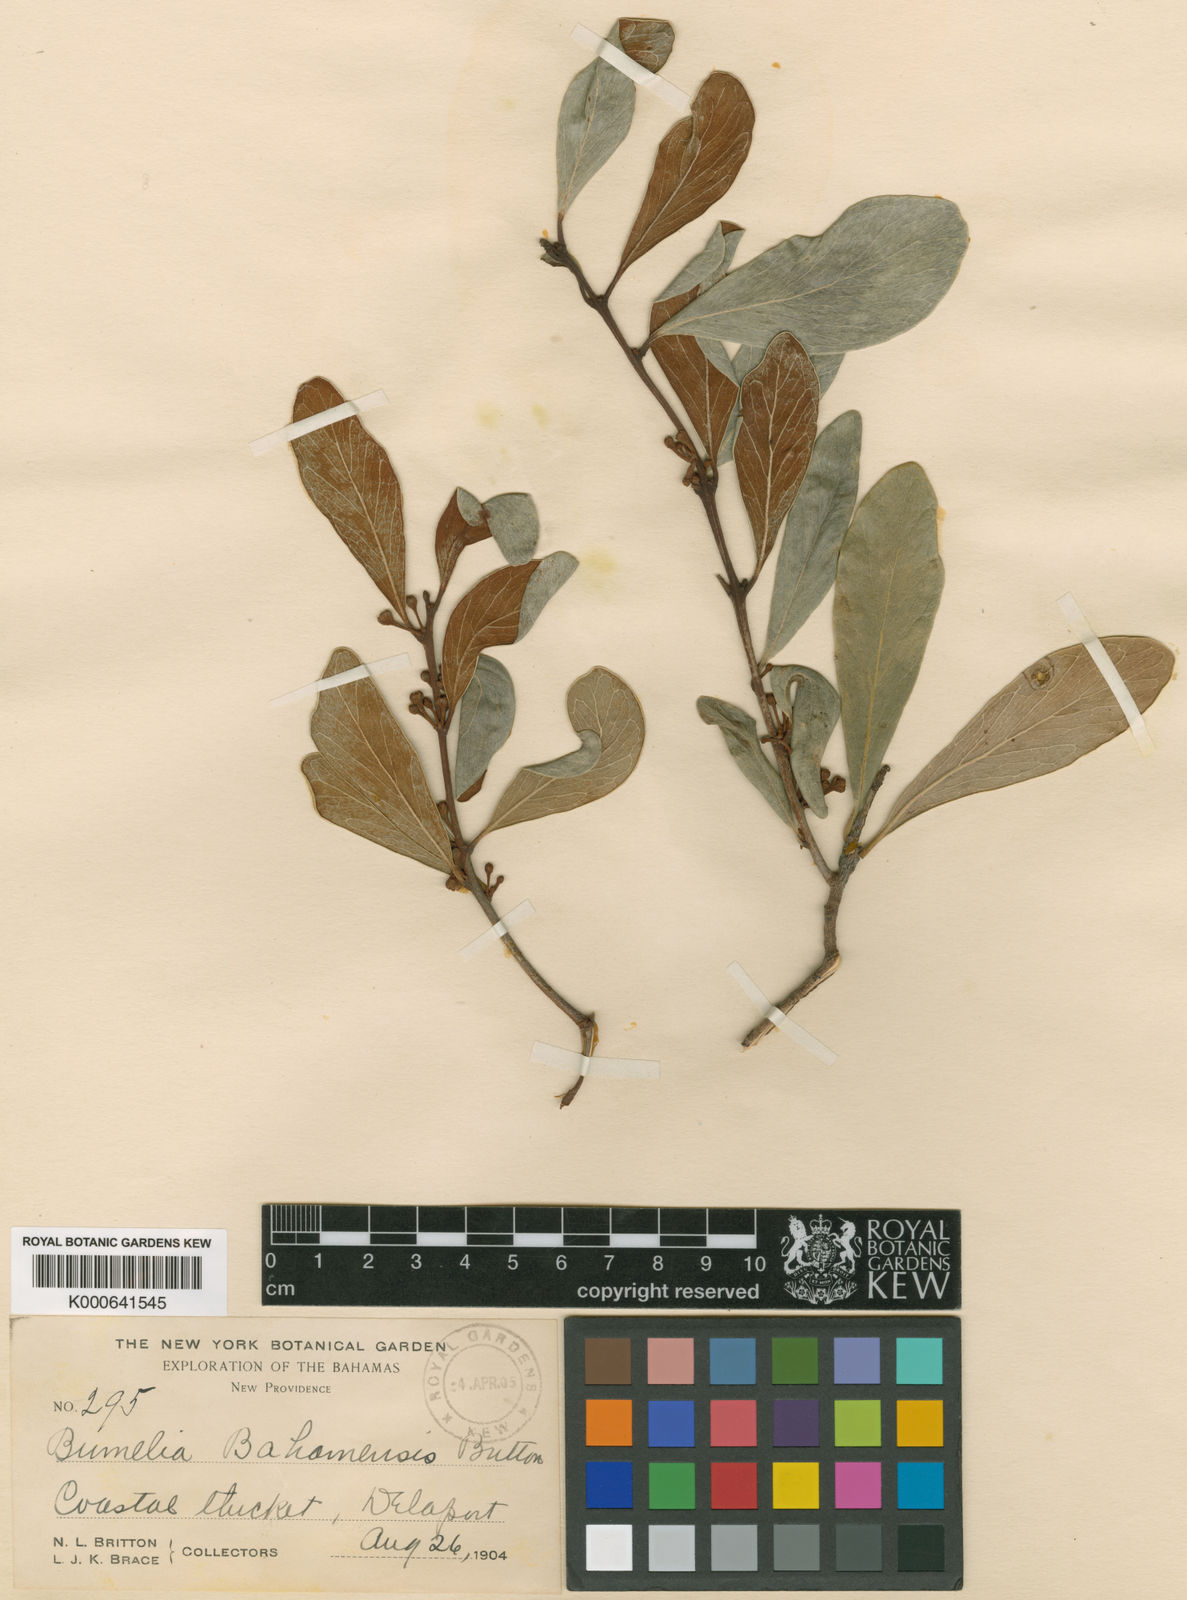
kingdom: Plantae
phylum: Tracheophyta
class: Magnoliopsida
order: Ericales
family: Sapotaceae
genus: Sideroxylon
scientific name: Sideroxylon americanum
